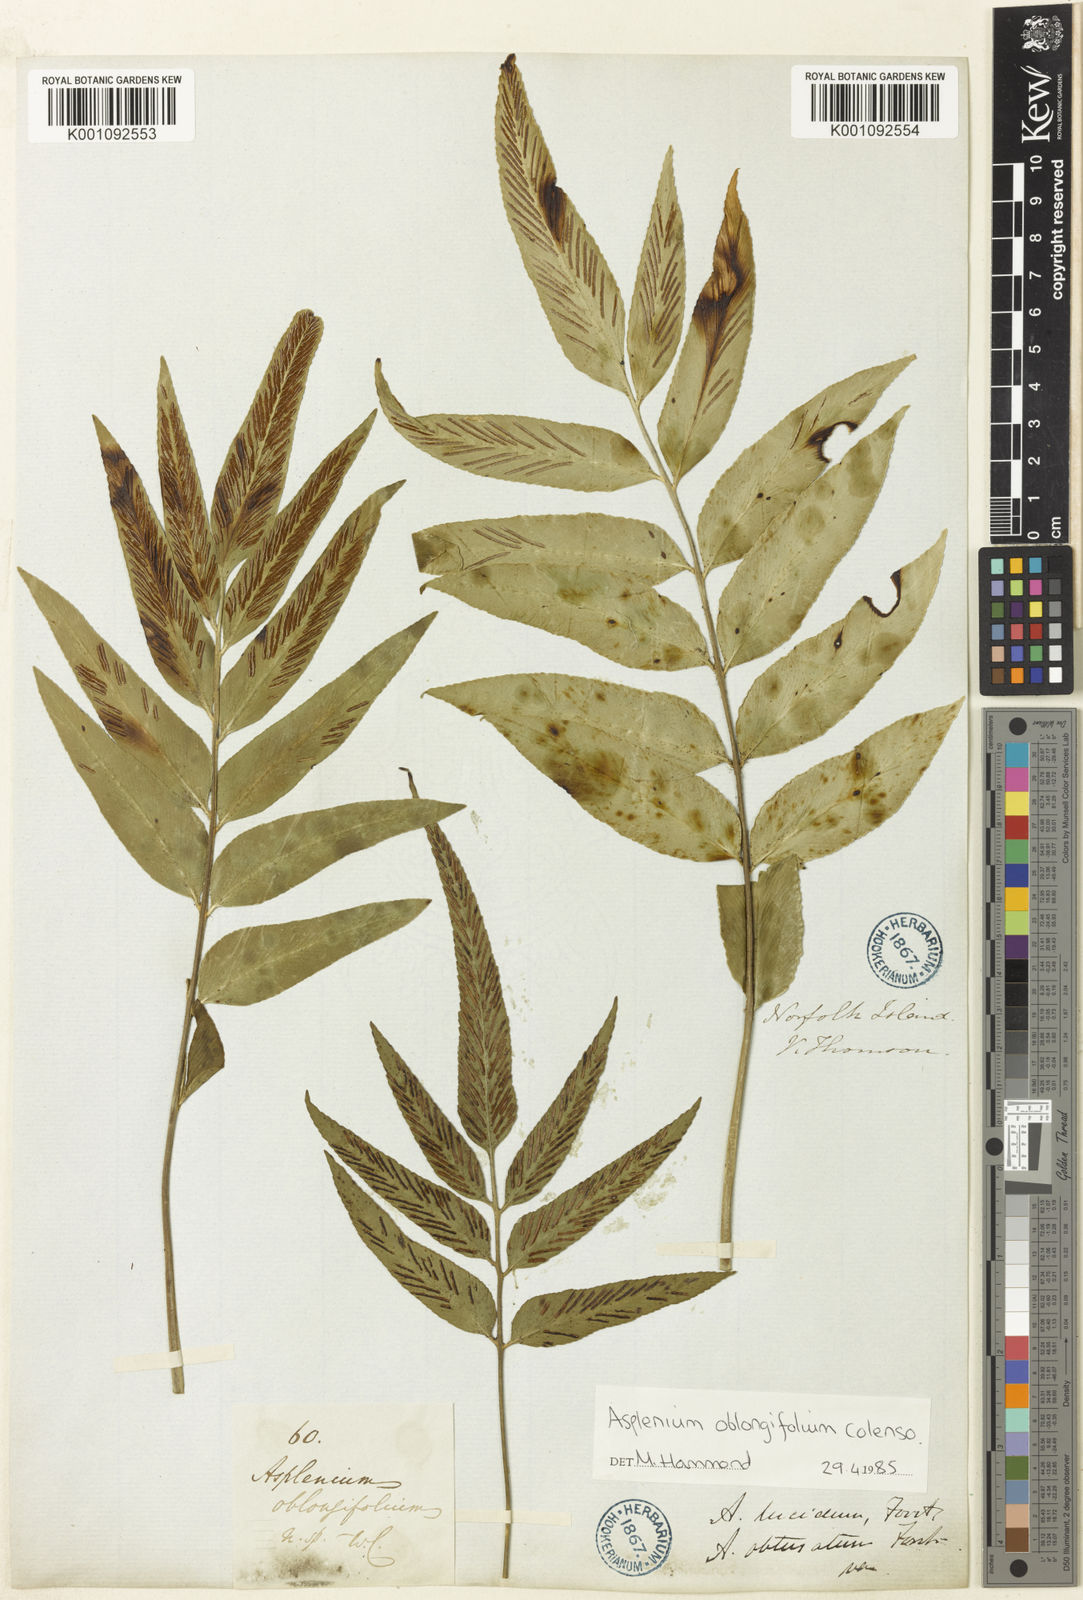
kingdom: Plantae
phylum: Tracheophyta
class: Polypodiopsida
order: Polypodiales
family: Aspleniaceae
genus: Asplenium
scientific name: Asplenium oblongifolium
